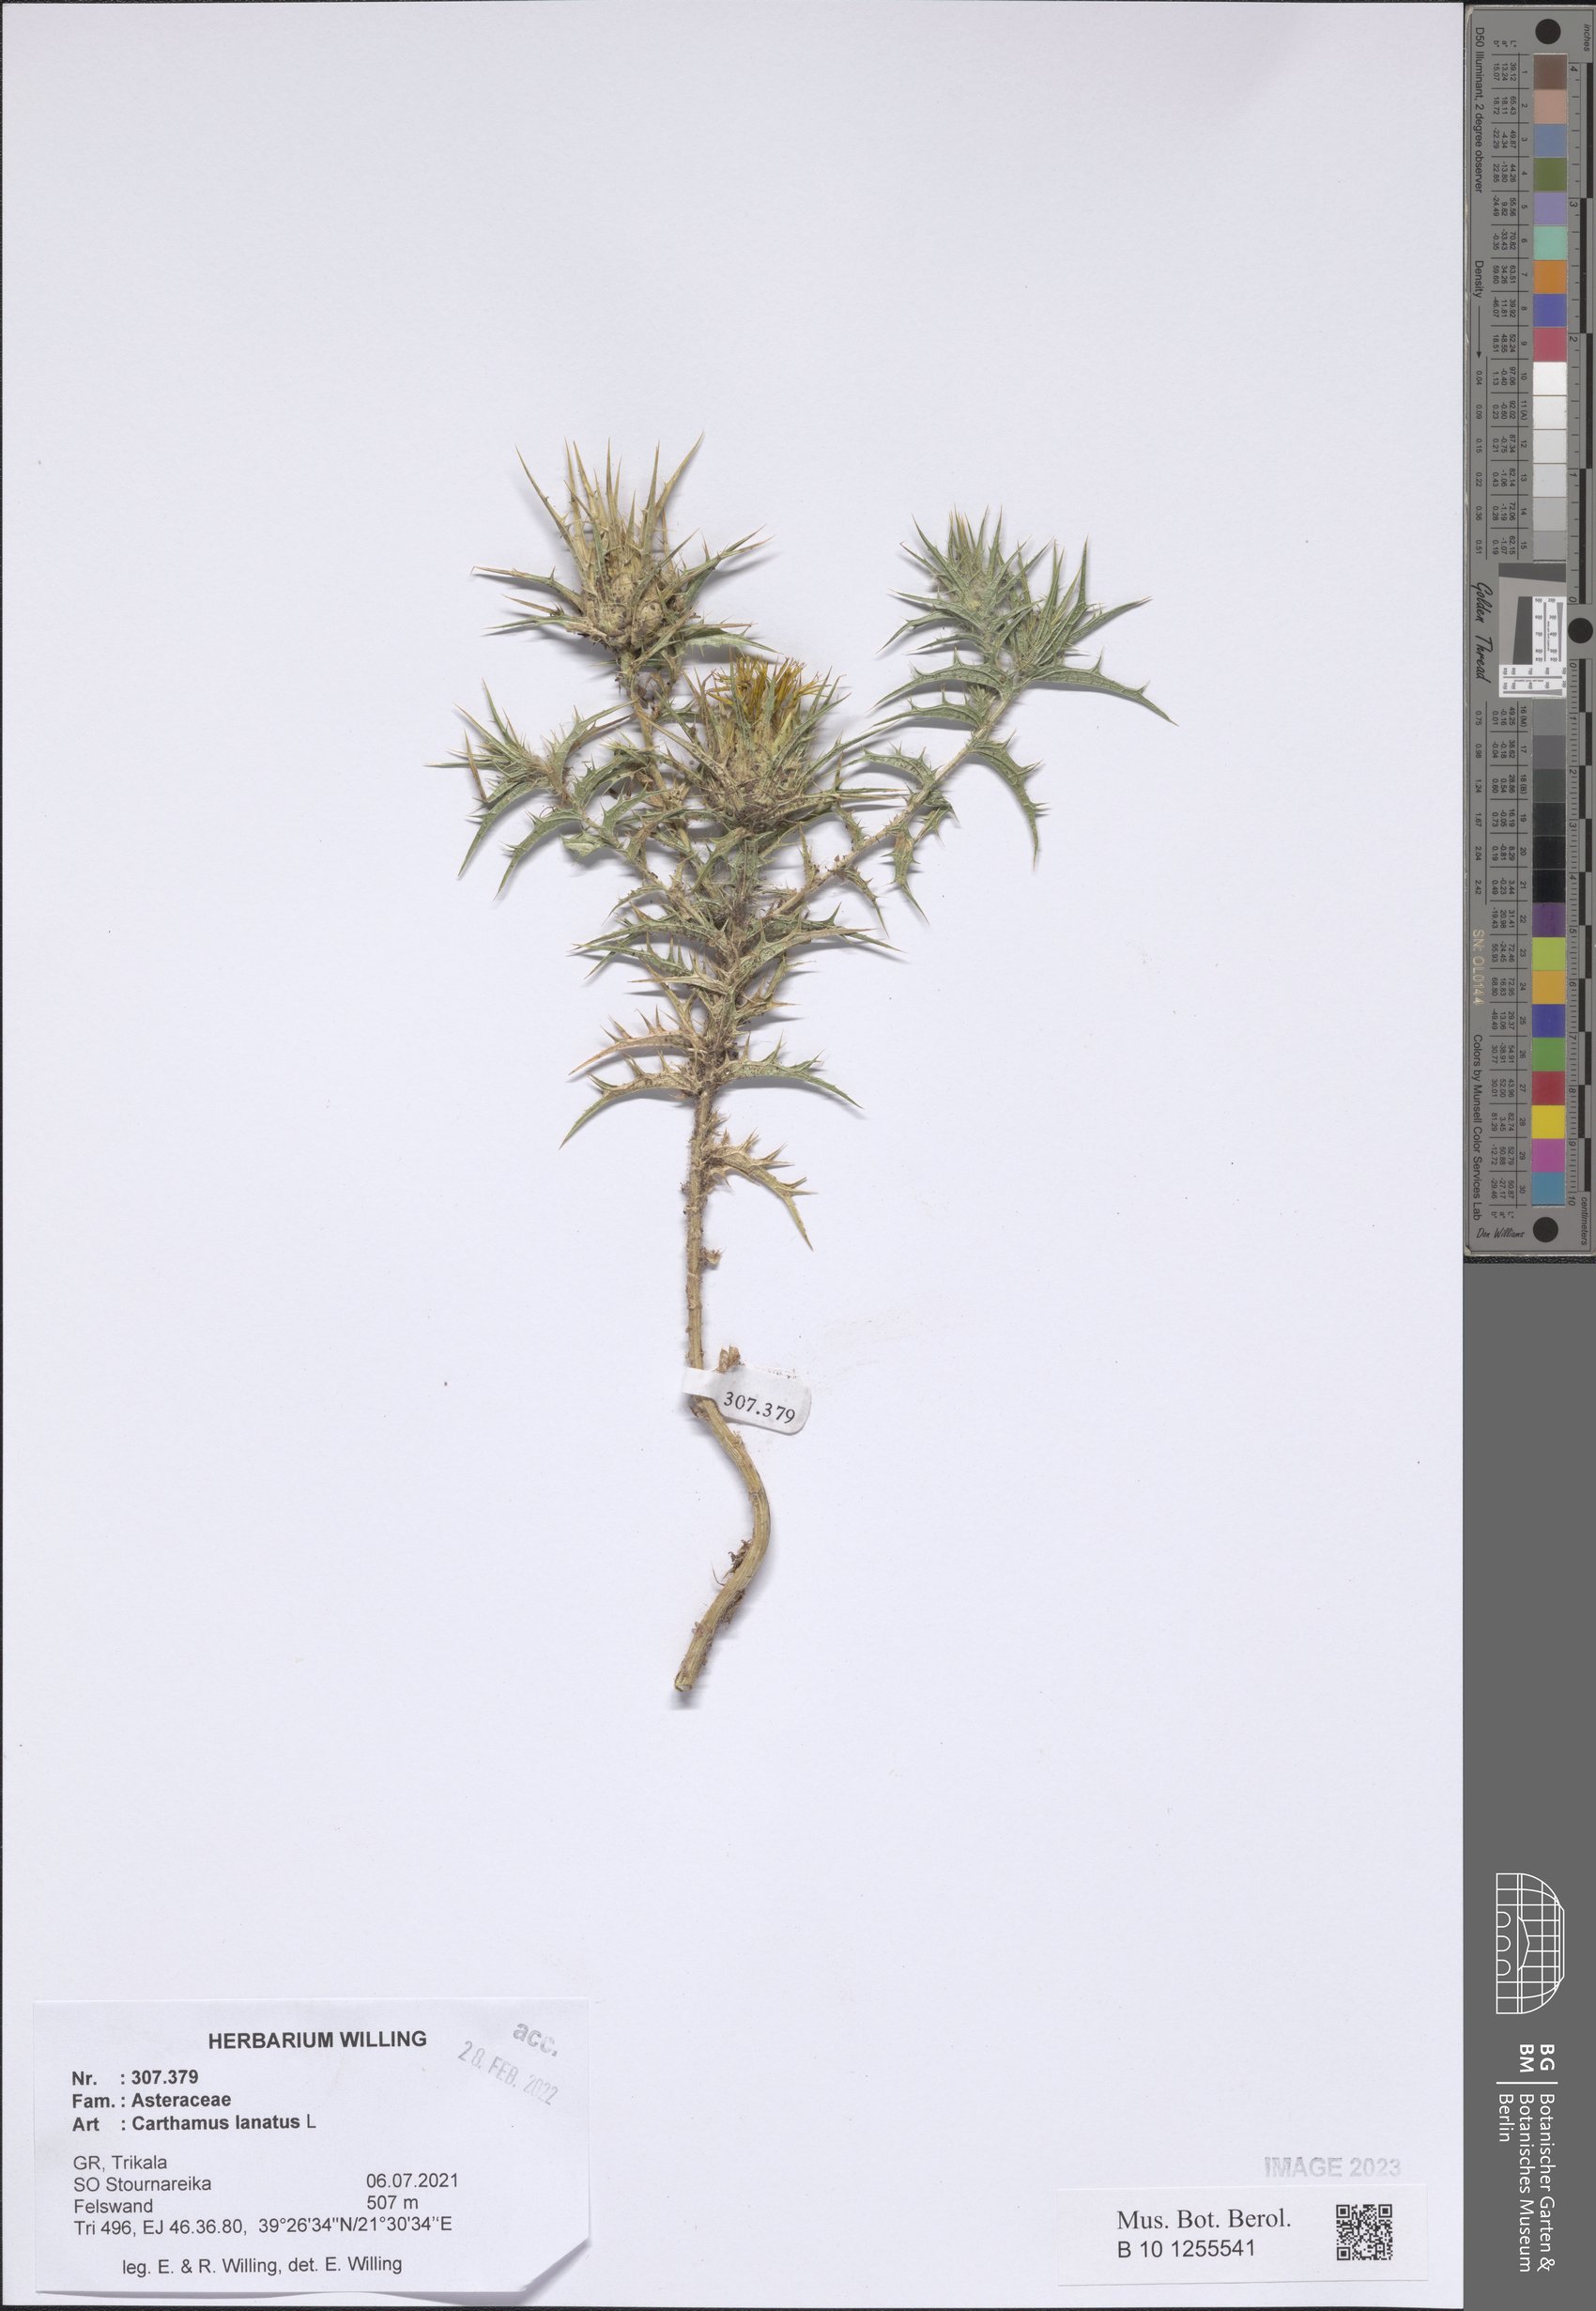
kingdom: Plantae
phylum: Tracheophyta
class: Magnoliopsida
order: Asterales
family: Asteraceae
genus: Carthamus
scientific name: Carthamus lanatus
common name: Downy safflower
